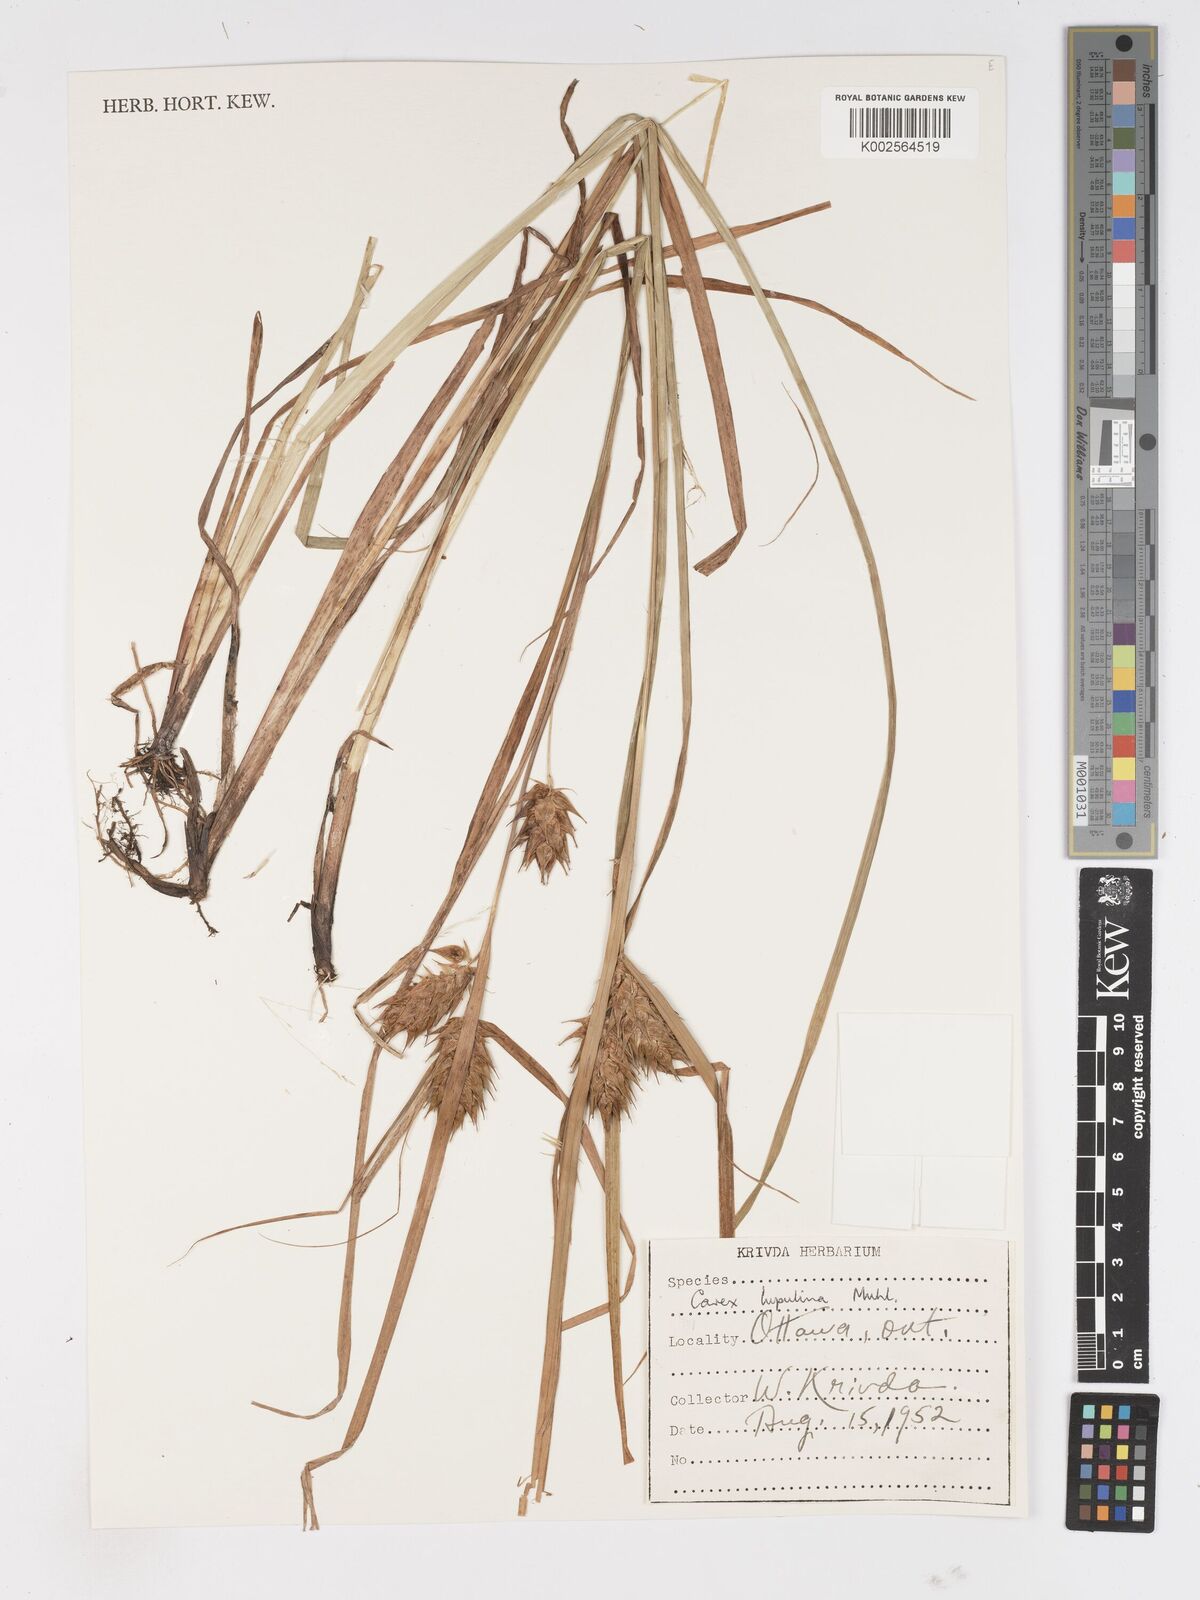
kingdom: Plantae
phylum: Tracheophyta
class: Liliopsida
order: Poales
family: Cyperaceae
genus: Carex
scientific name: Carex lupulina
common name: Hop sedge
